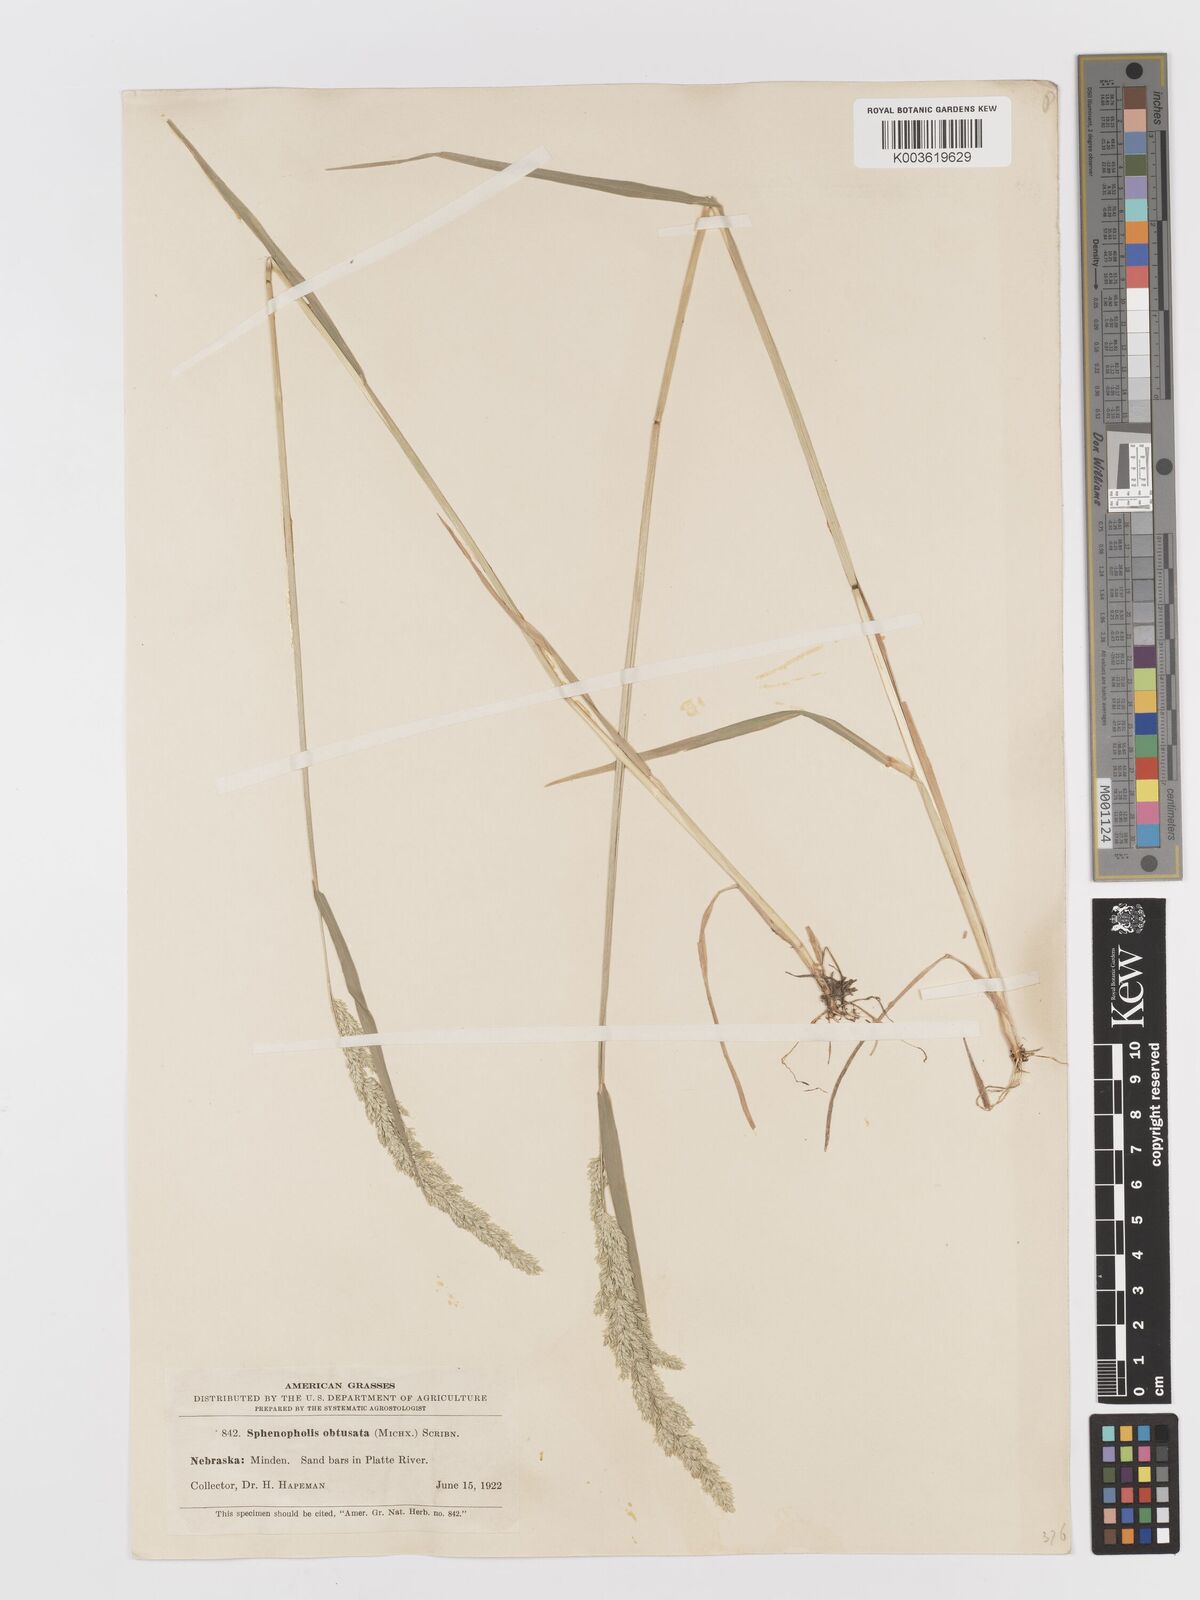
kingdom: Plantae
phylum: Tracheophyta
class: Liliopsida
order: Poales
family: Poaceae
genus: Sphenopholis
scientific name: Sphenopholis obtusata
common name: Prairie grass
